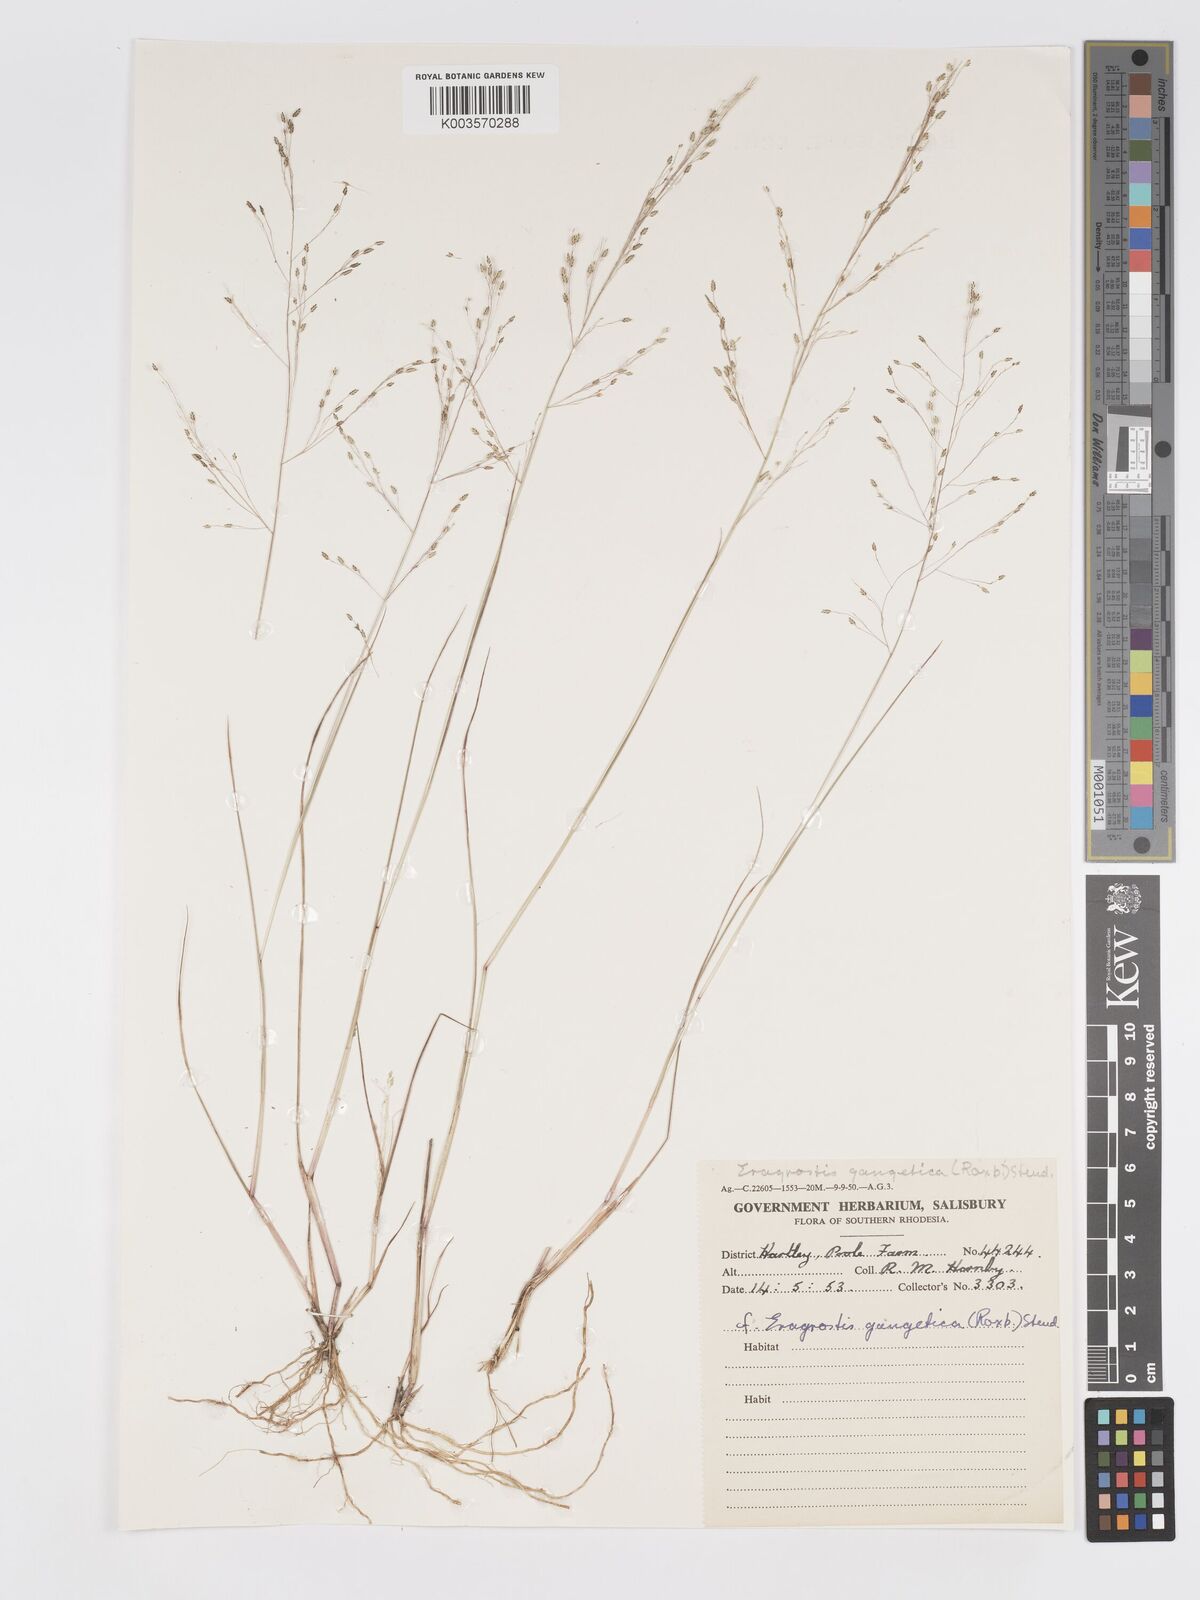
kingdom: Plantae
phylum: Tracheophyta
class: Liliopsida
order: Poales
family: Poaceae
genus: Eragrostis
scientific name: Eragrostis gangetica
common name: Slimflower lovegrass
